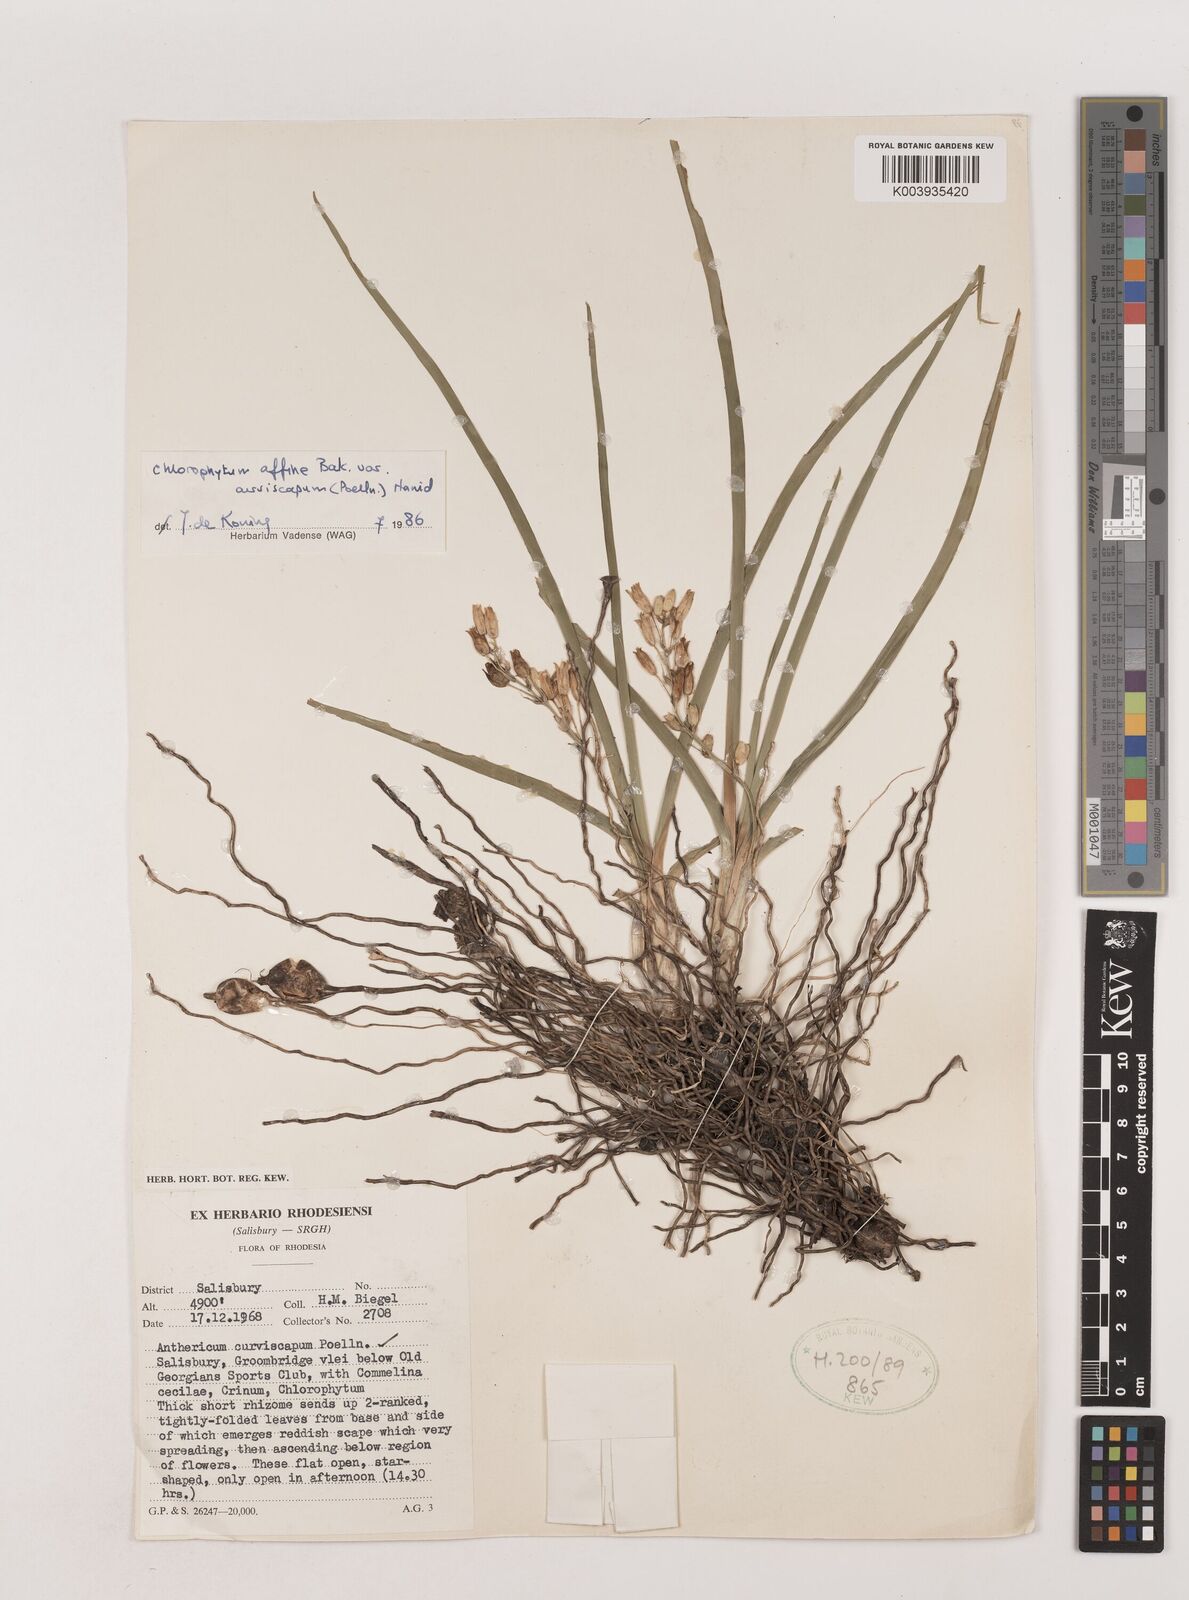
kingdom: Plantae
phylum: Tracheophyta
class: Liliopsida
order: Asparagales
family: Asparagaceae
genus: Chlorophytum
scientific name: Chlorophytum tordense
